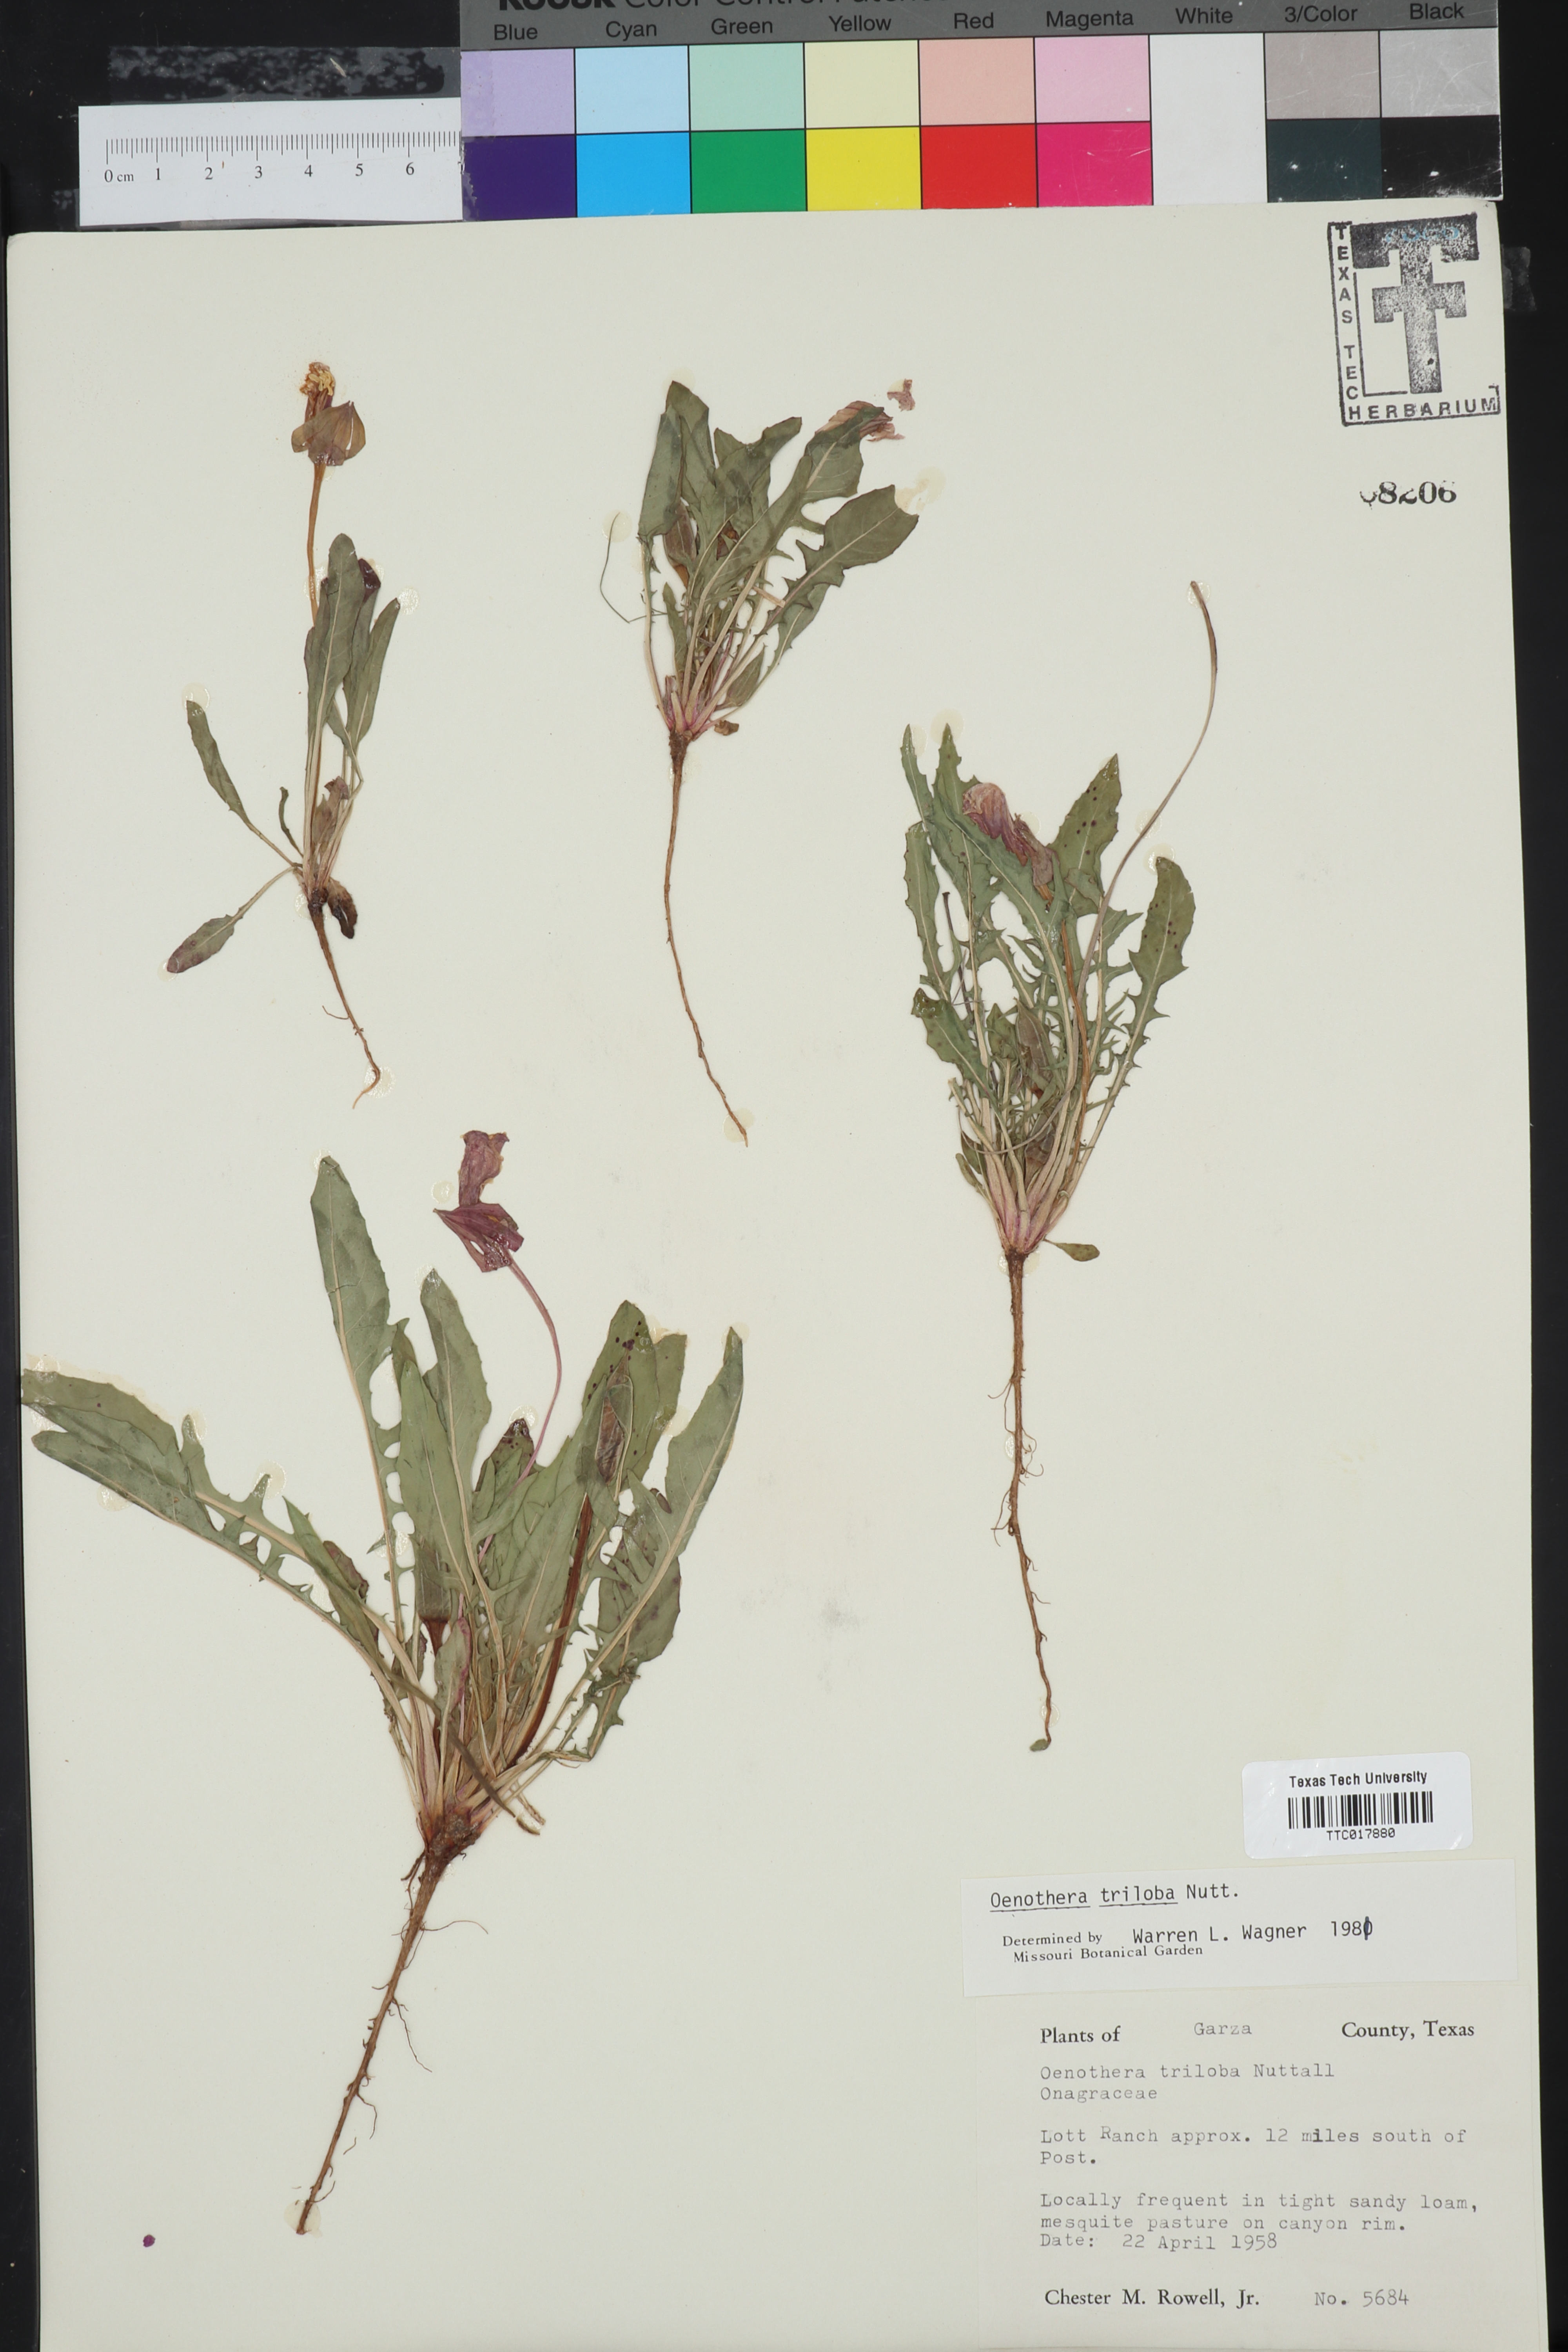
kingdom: Plantae
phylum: Tracheophyta
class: Magnoliopsida
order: Myrtales
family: Onagraceae
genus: Oenothera
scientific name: Oenothera triloba
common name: Sessile evening-primrose
